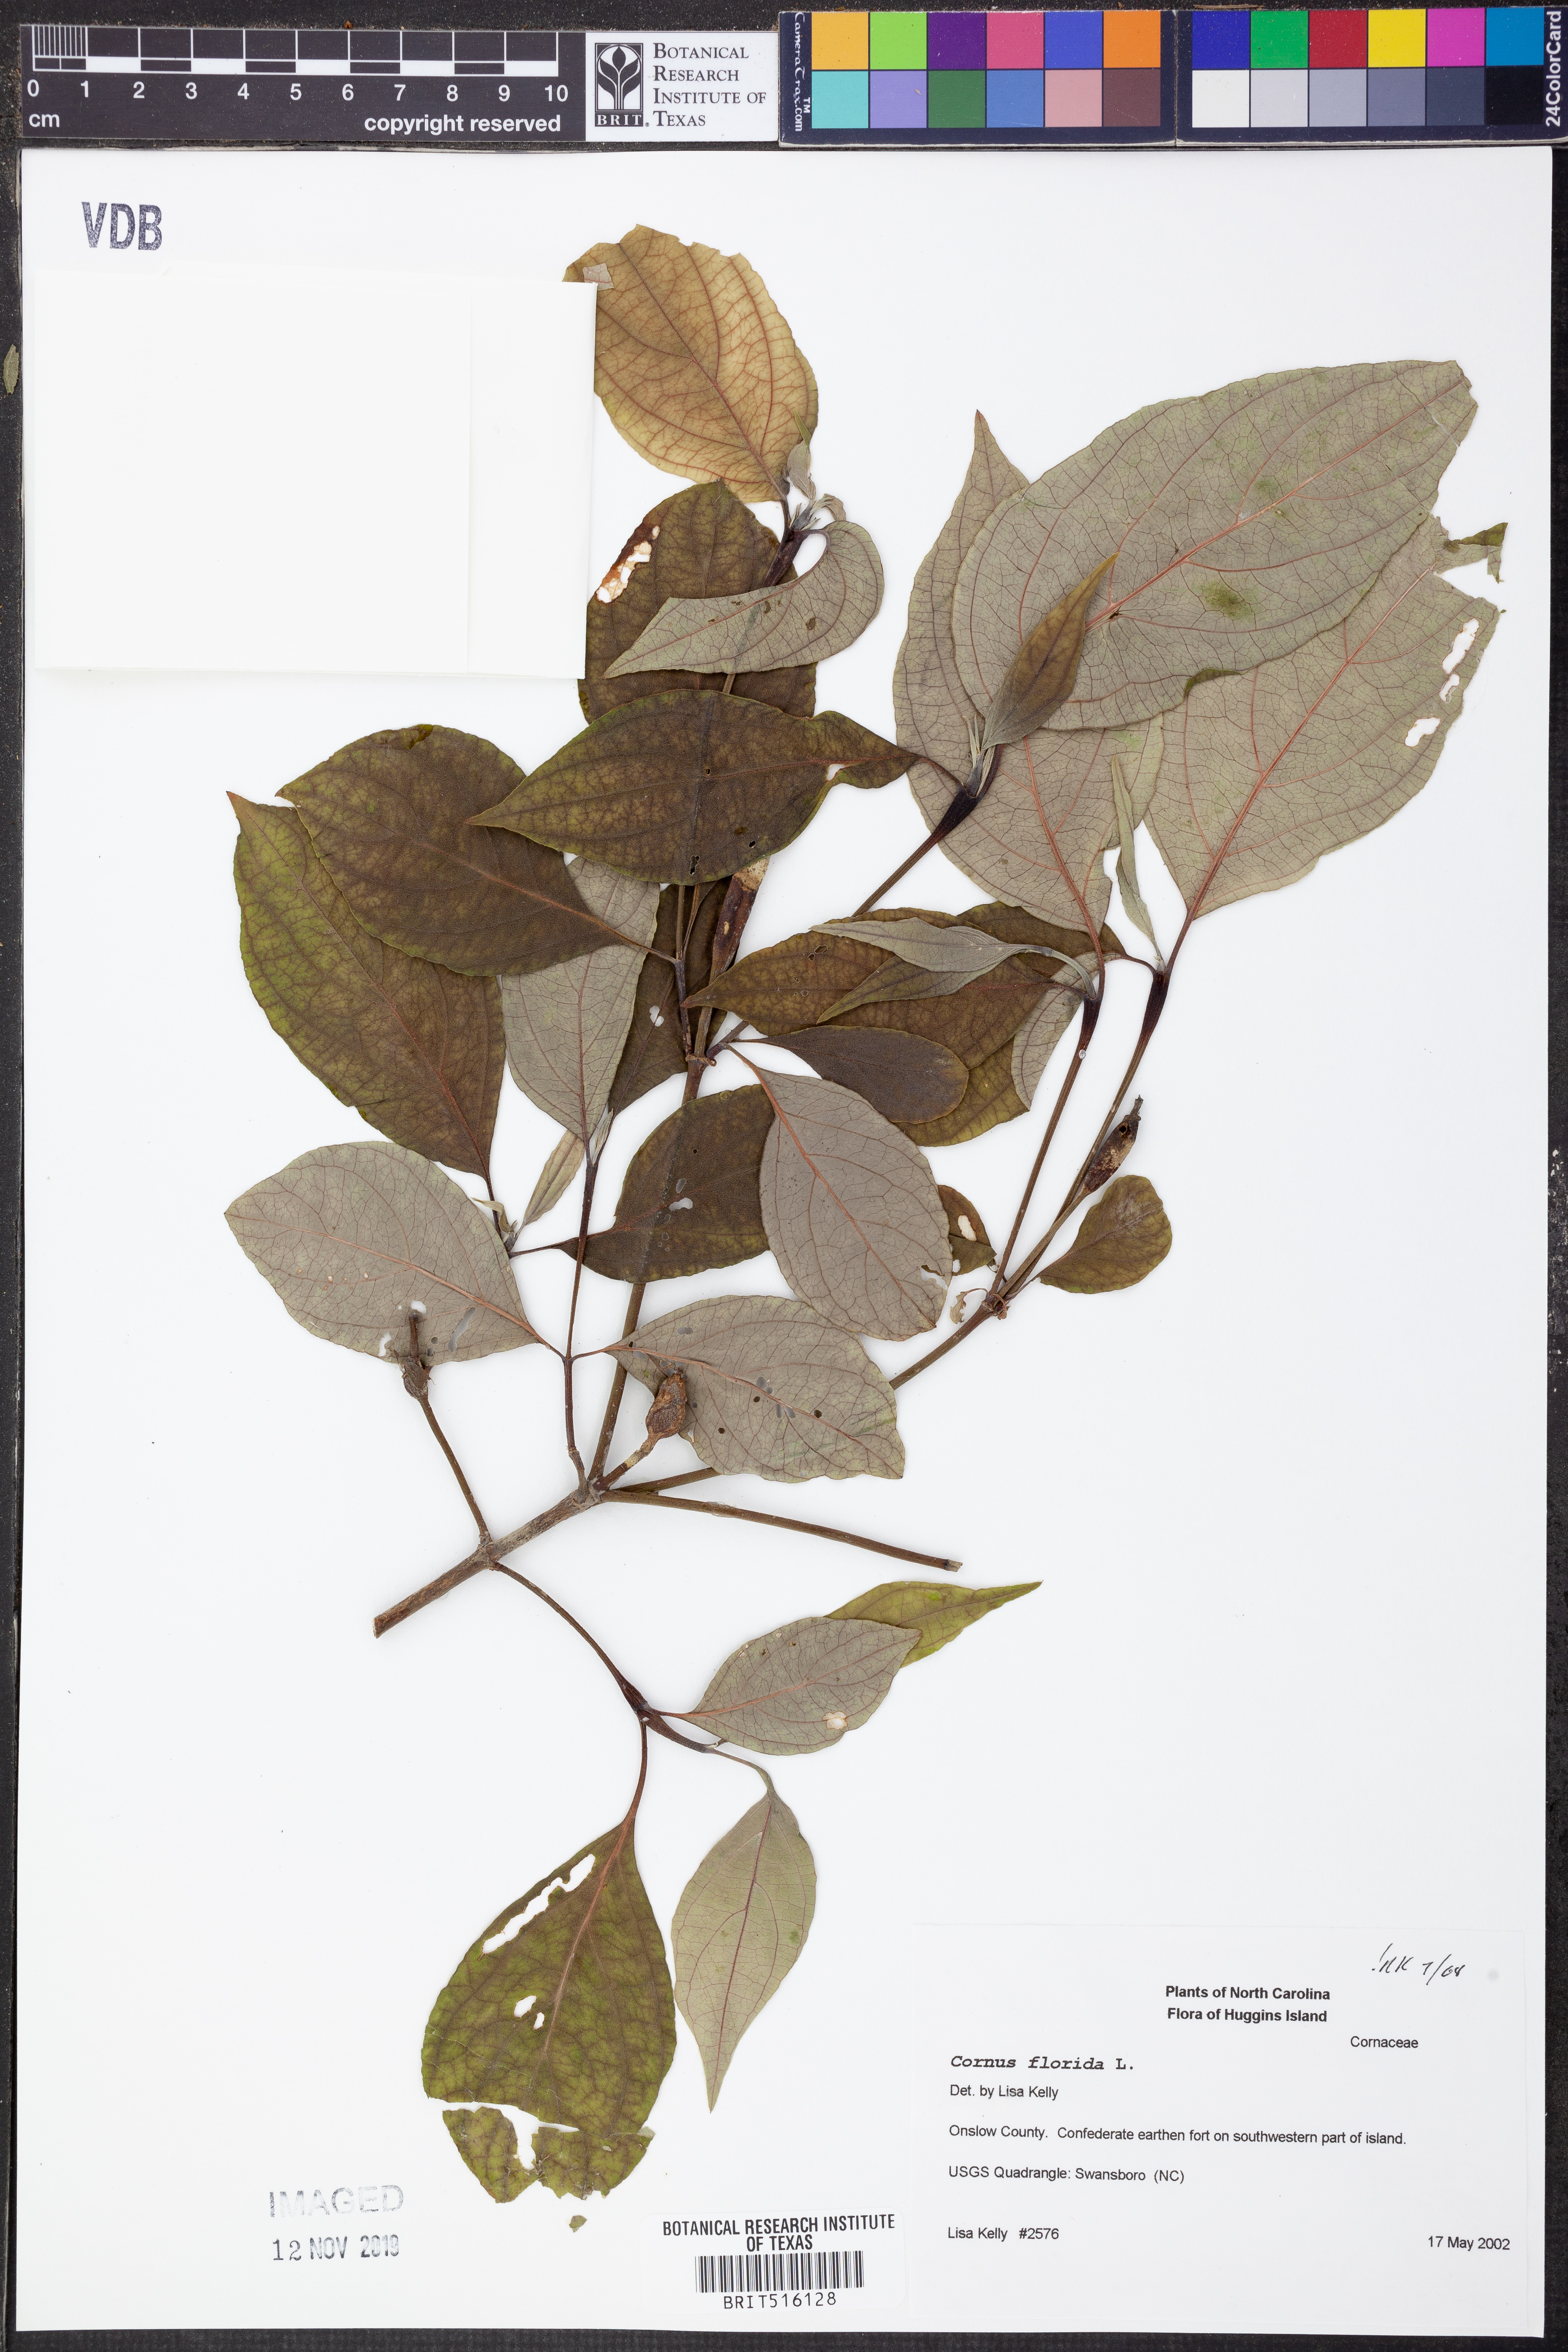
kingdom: Plantae
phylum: Tracheophyta
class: Magnoliopsida
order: Cornales
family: Cornaceae
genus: Cornus
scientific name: Cornus florida
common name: Flowering dogwood
